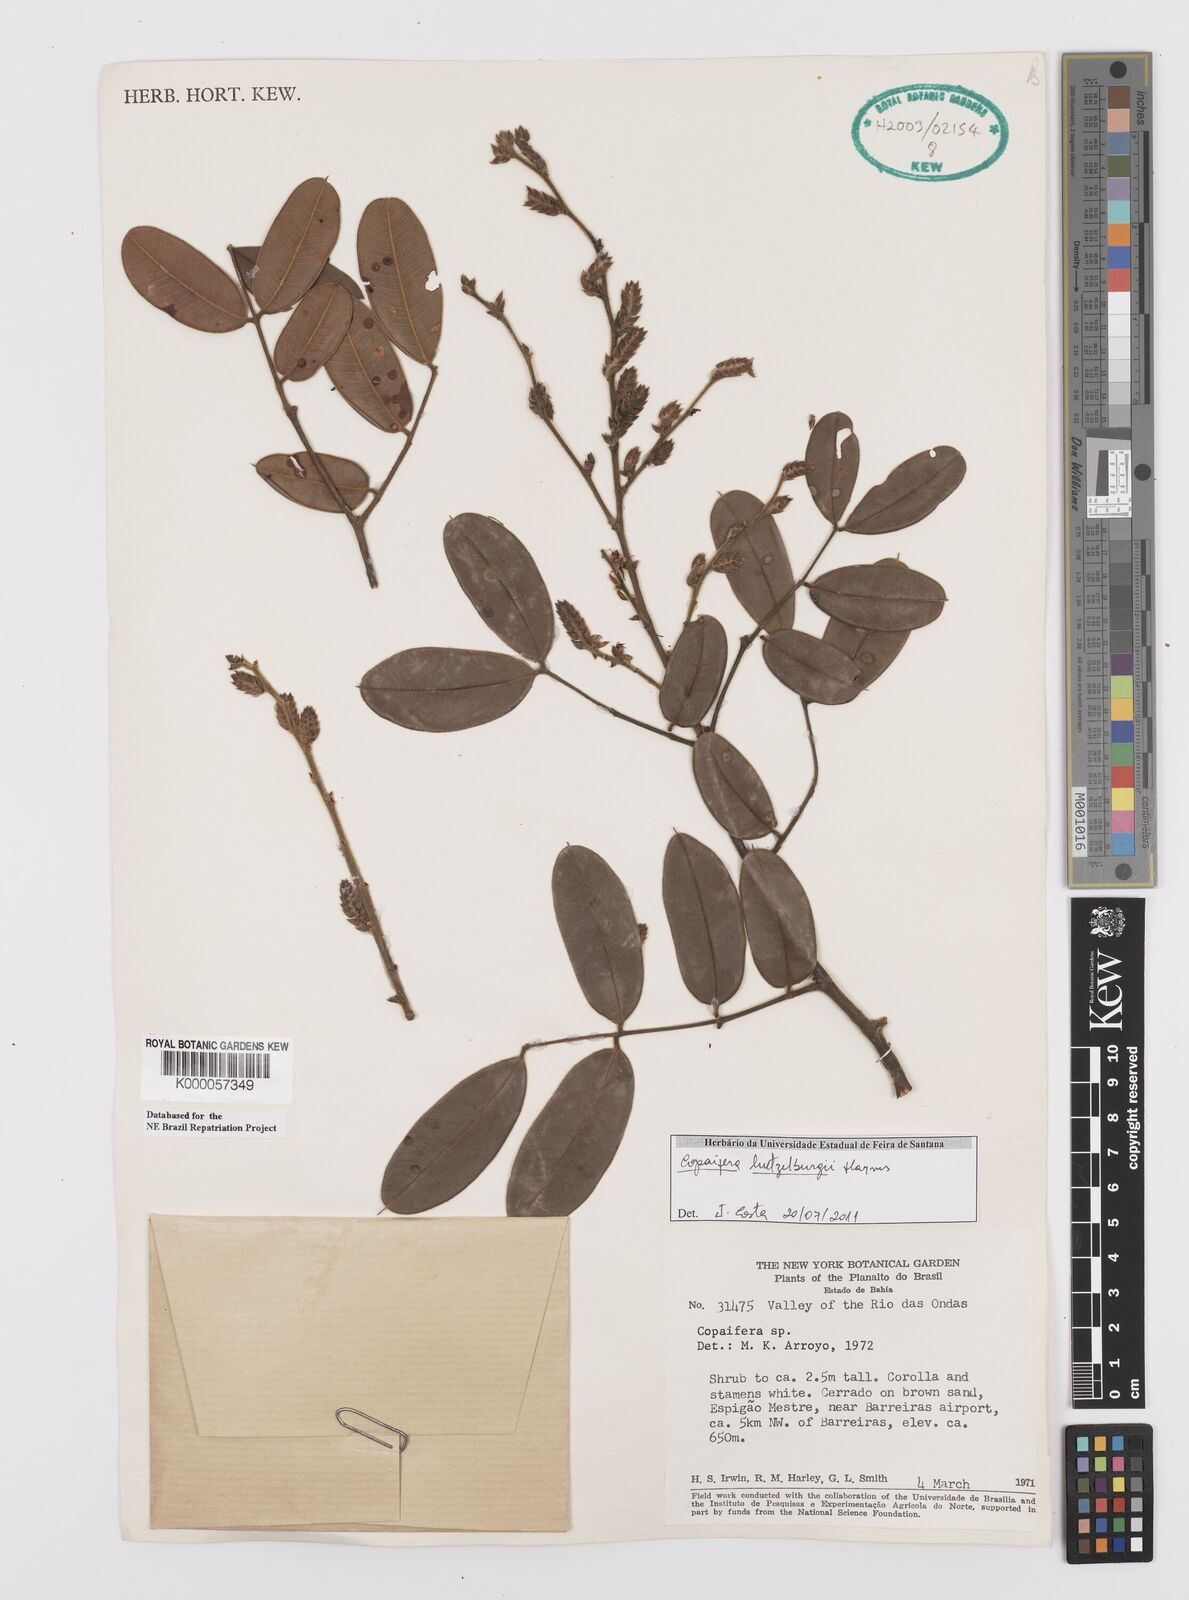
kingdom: Plantae
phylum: Tracheophyta
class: Magnoliopsida
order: Fabales
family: Fabaceae
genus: Copaifera
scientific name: Copaifera luetzelburgii
